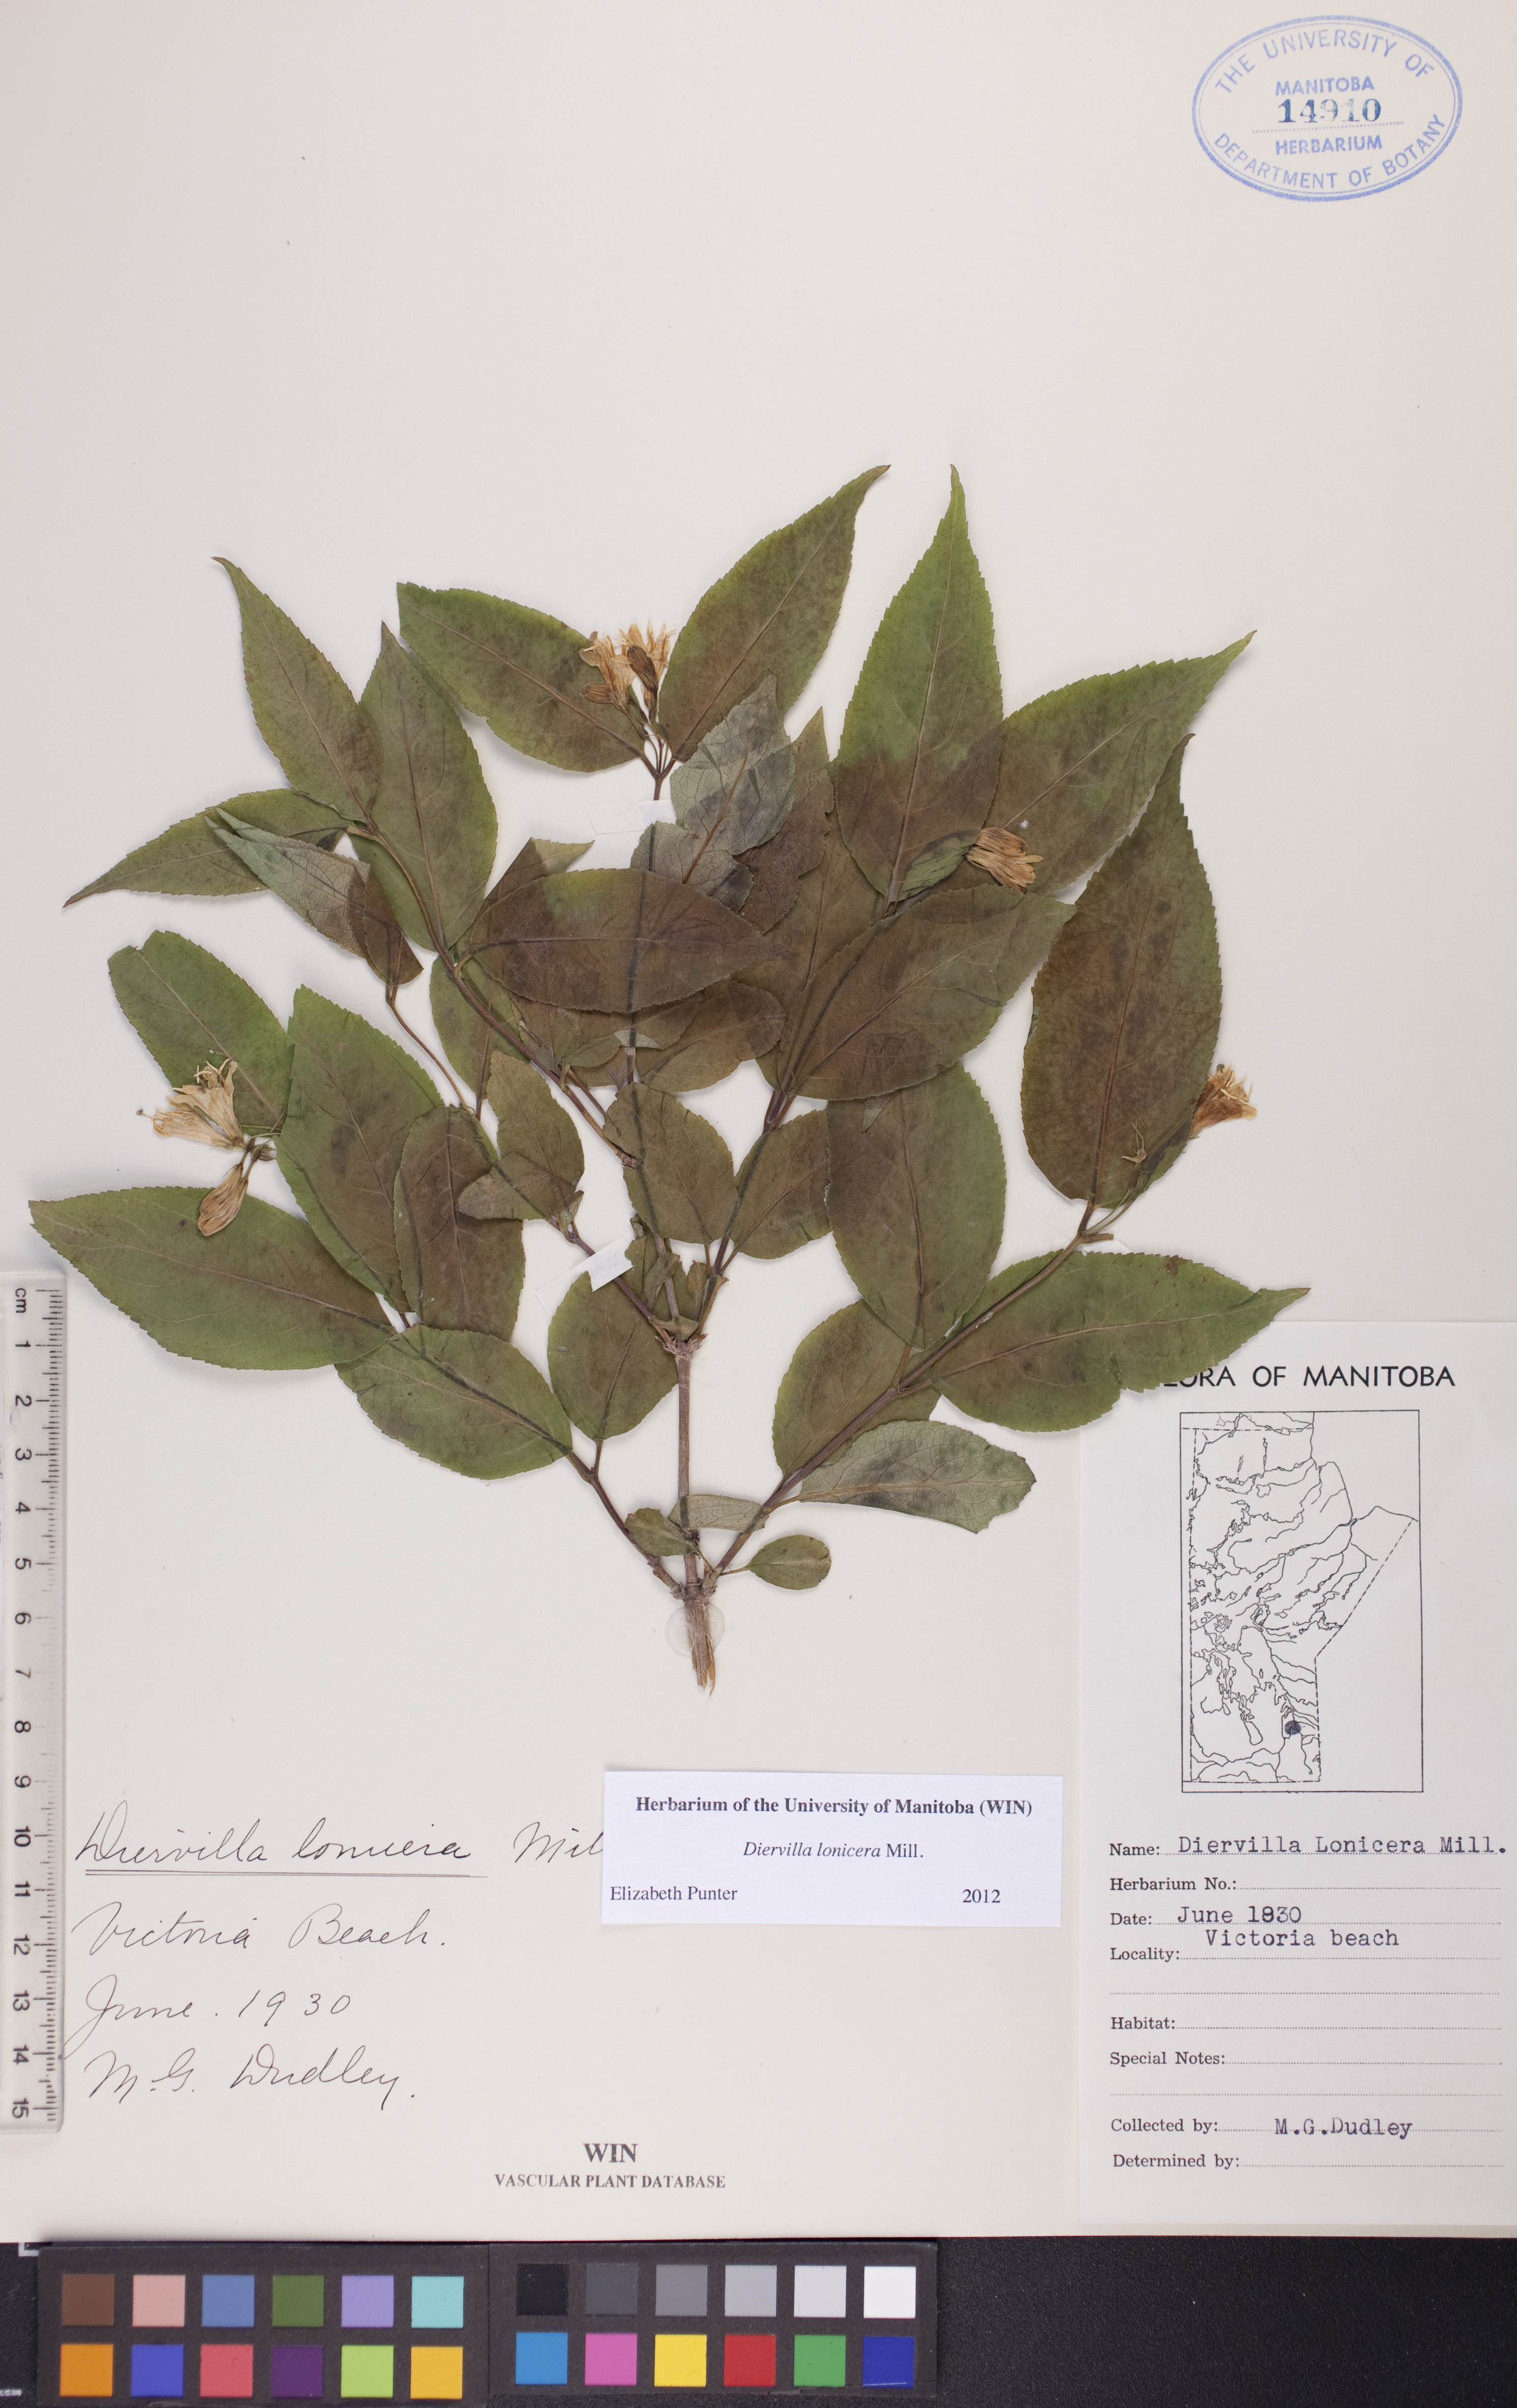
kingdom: Plantae
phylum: Tracheophyta
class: Magnoliopsida
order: Dipsacales
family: Caprifoliaceae
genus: Diervilla
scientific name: Diervilla lonicera
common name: Bush-honeysuckle
